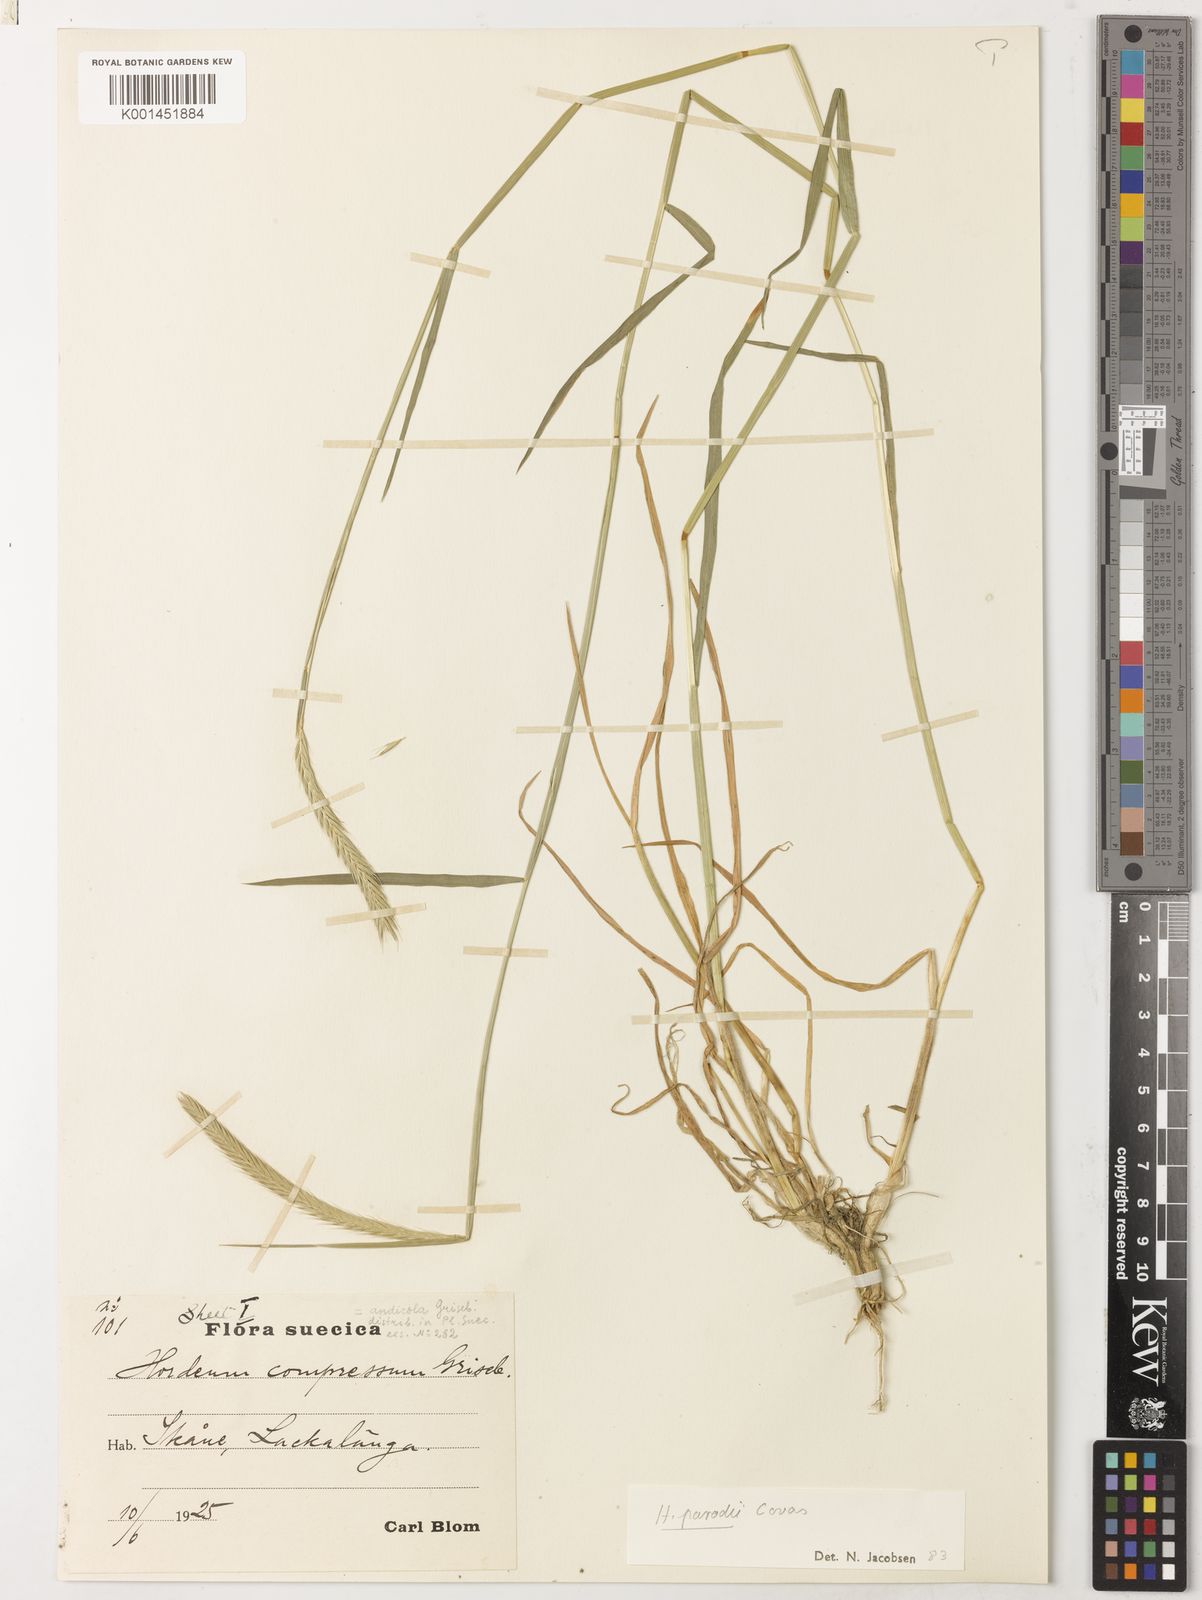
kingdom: Plantae
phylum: Tracheophyta
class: Liliopsida
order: Poales
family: Poaceae
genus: Hordeum
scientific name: Hordeum parodii
